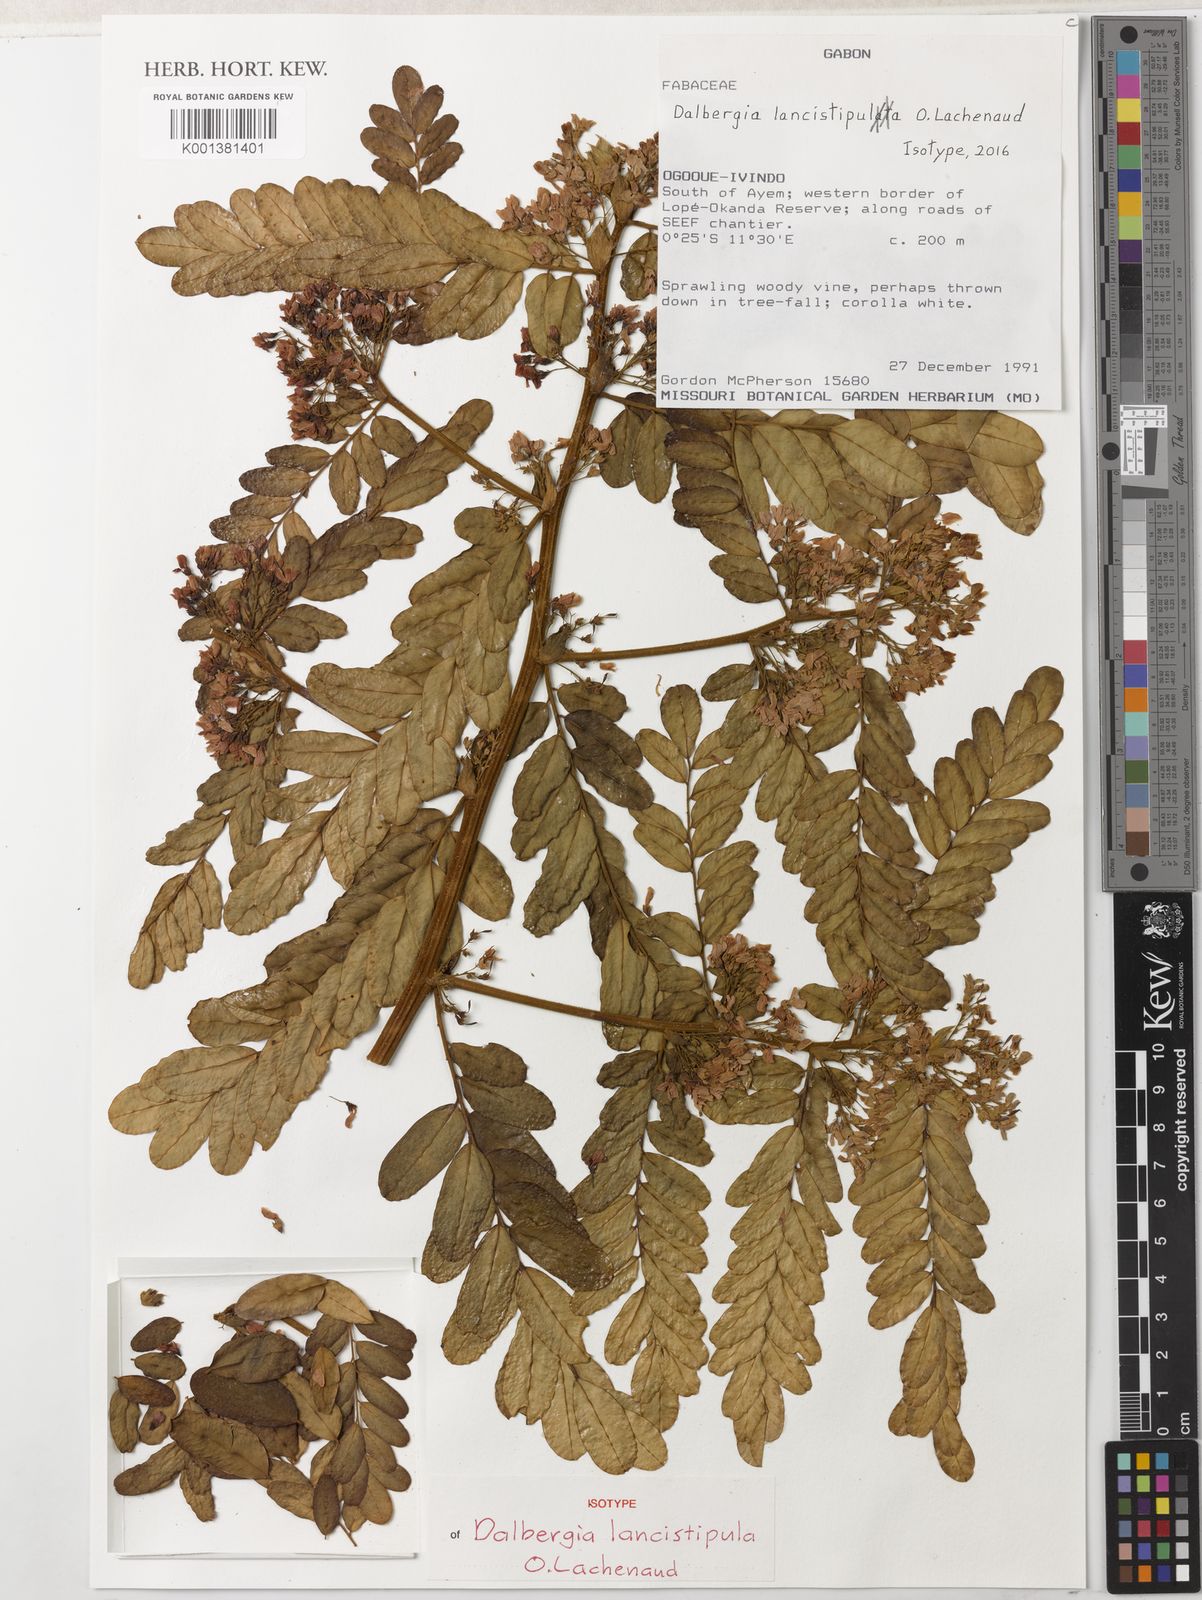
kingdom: Plantae
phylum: Tracheophyta
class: Magnoliopsida
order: Fabales
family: Fabaceae
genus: Dalbergia
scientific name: Dalbergia lancistipula
